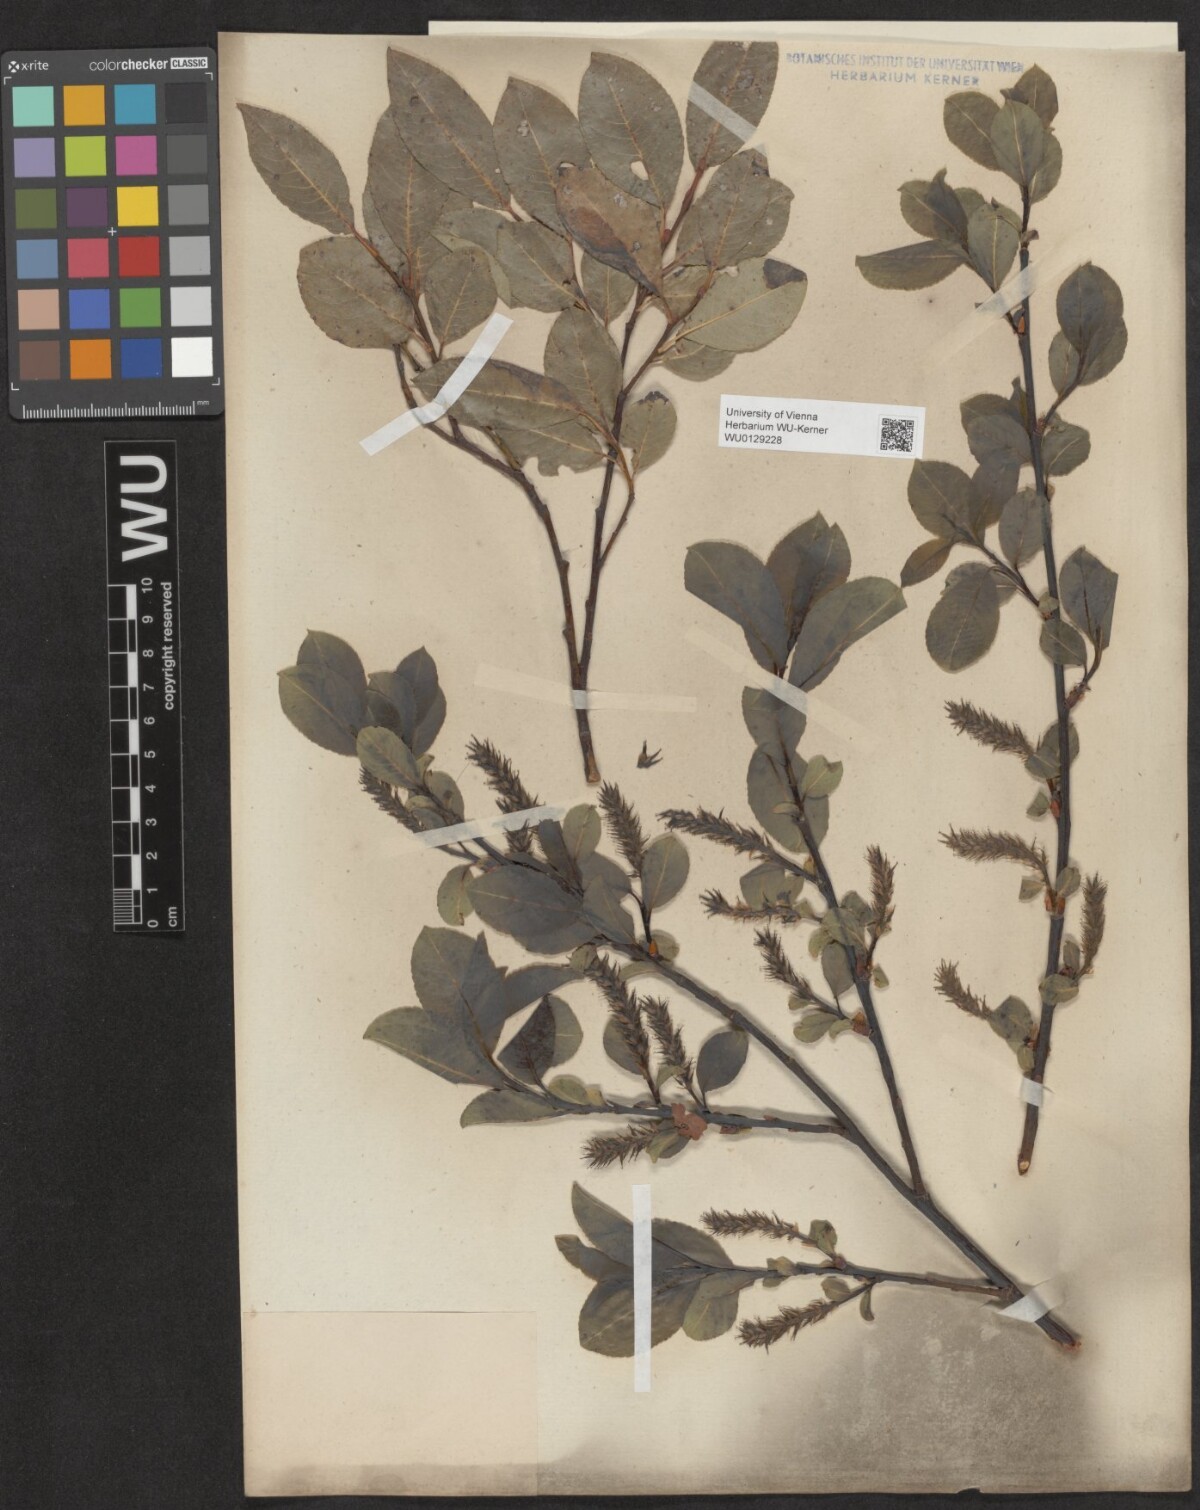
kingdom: Plantae
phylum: Tracheophyta
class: Magnoliopsida
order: Malpighiales
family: Salicaceae
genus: Salix
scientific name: Salix glabra
